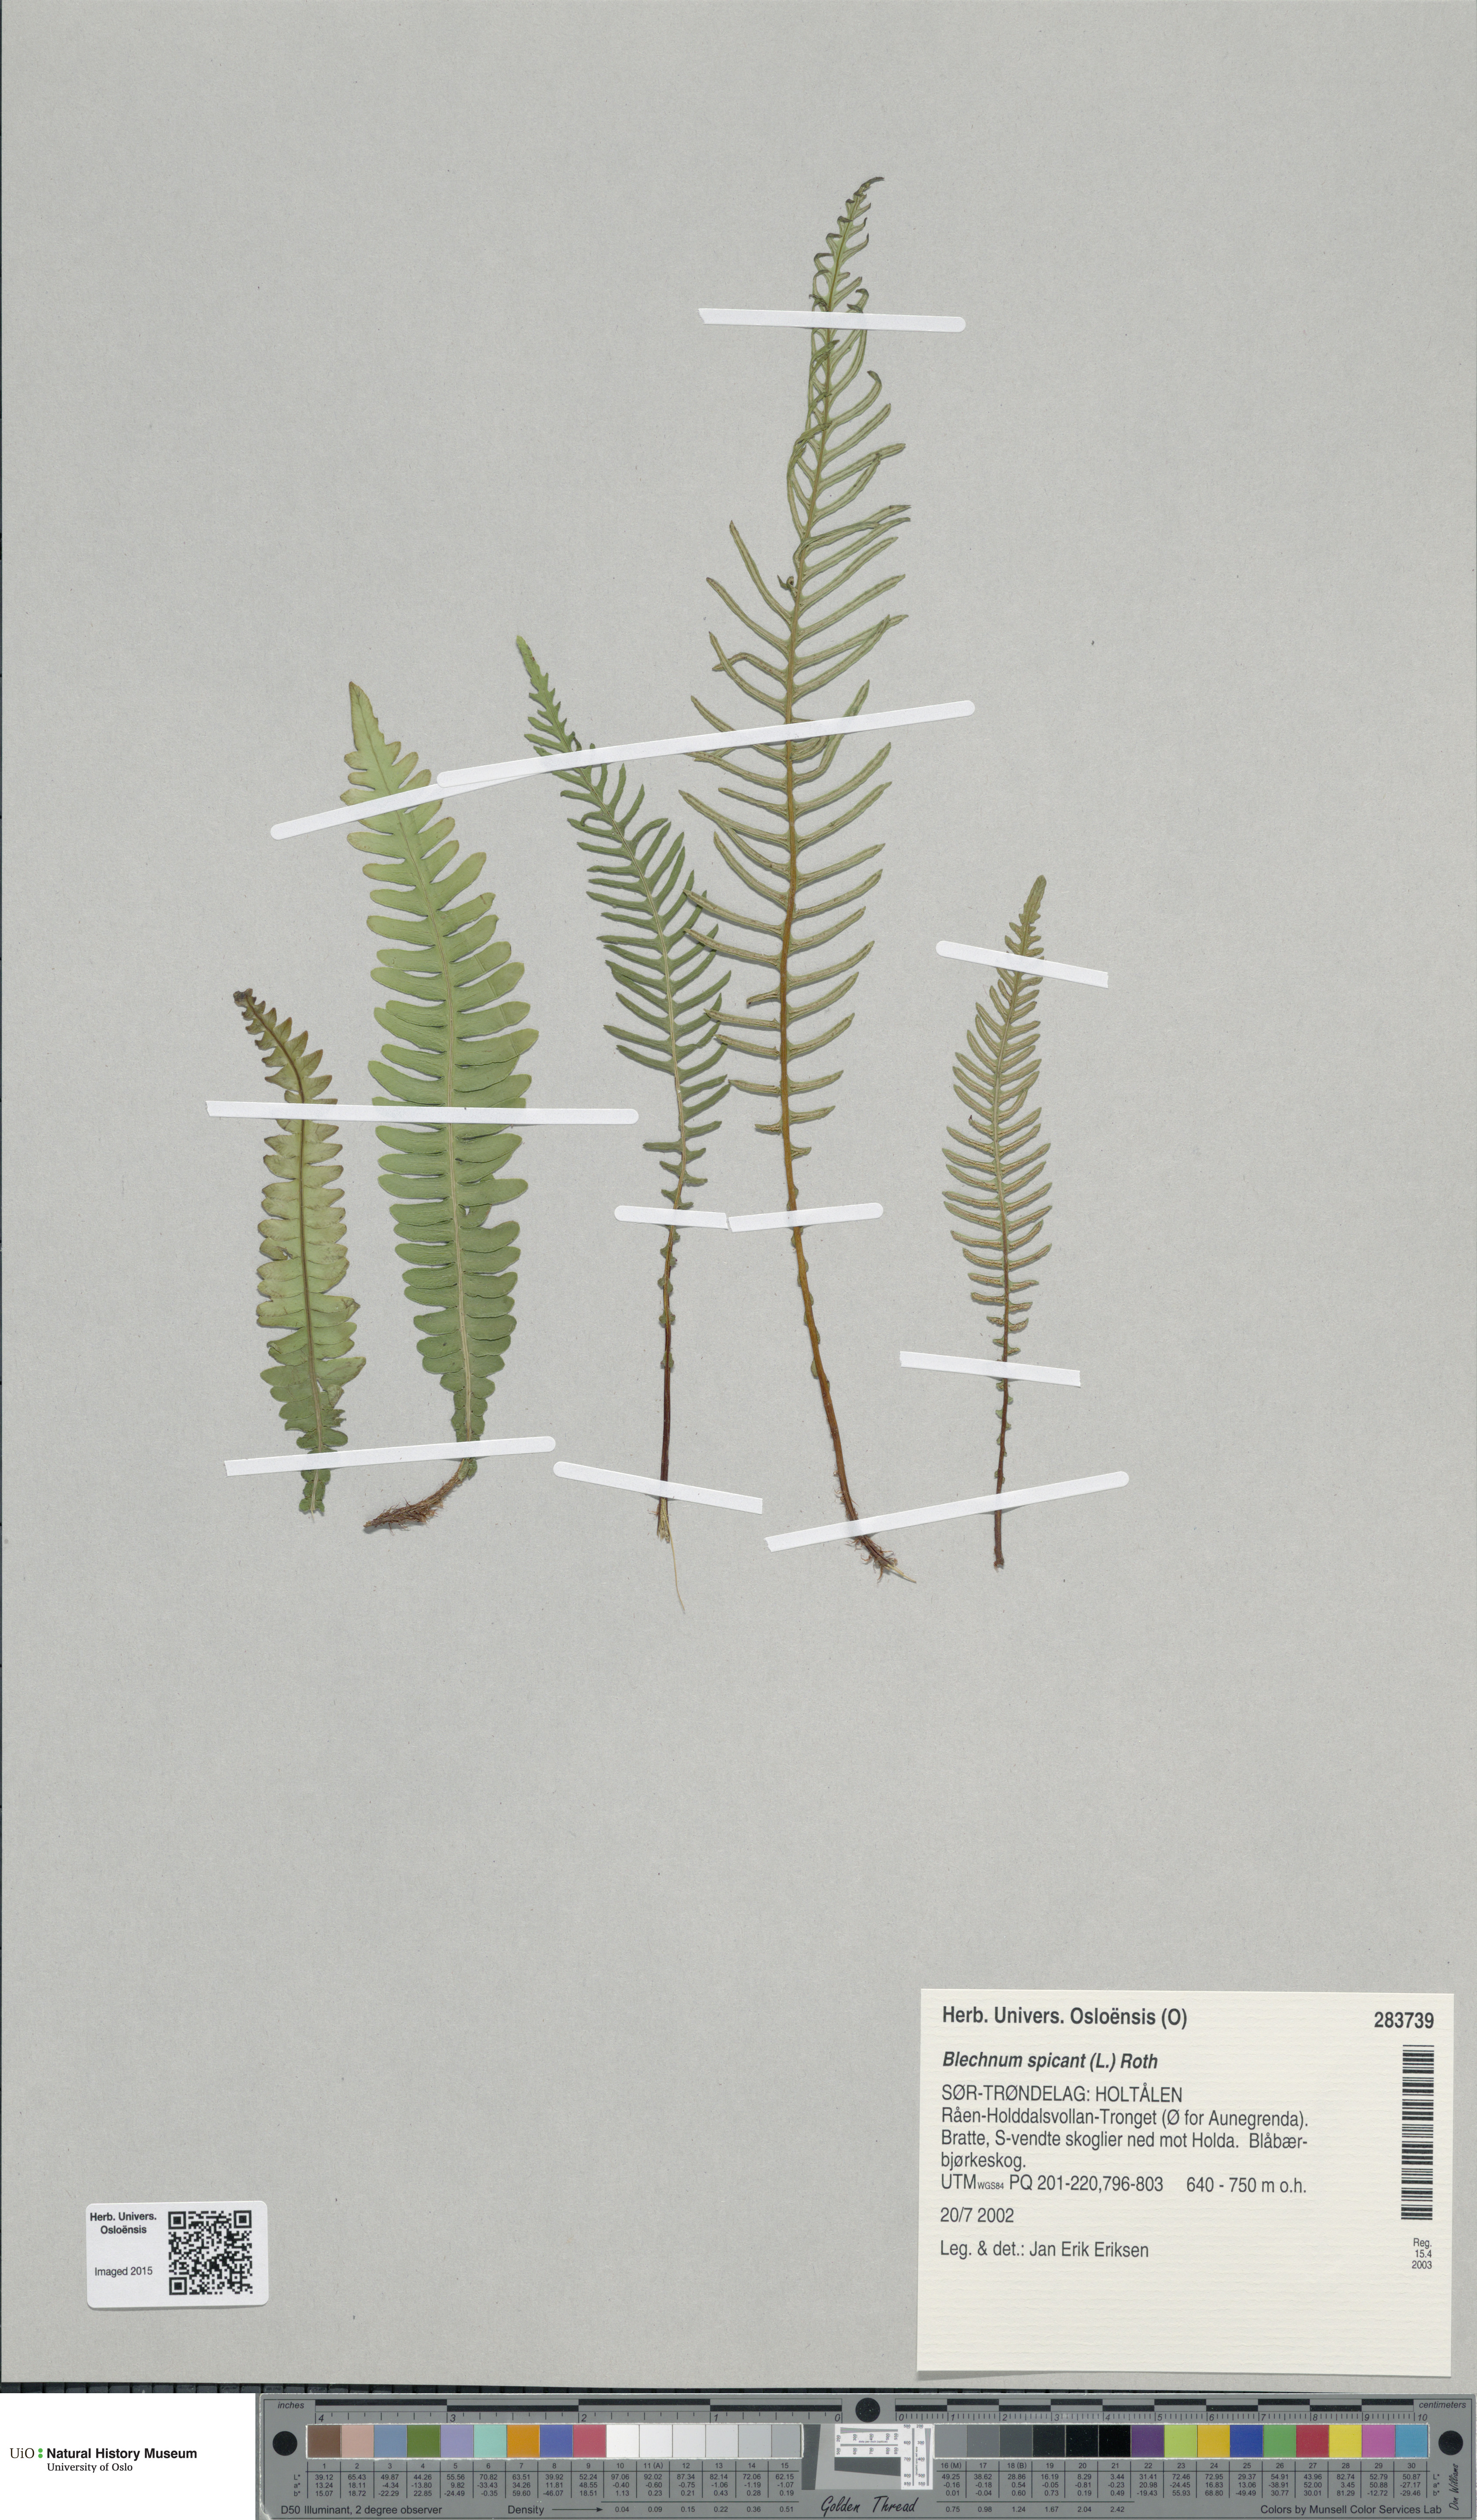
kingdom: Plantae
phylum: Tracheophyta
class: Polypodiopsida
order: Polypodiales
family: Blechnaceae
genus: Struthiopteris
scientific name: Struthiopteris spicant
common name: Deer fern
